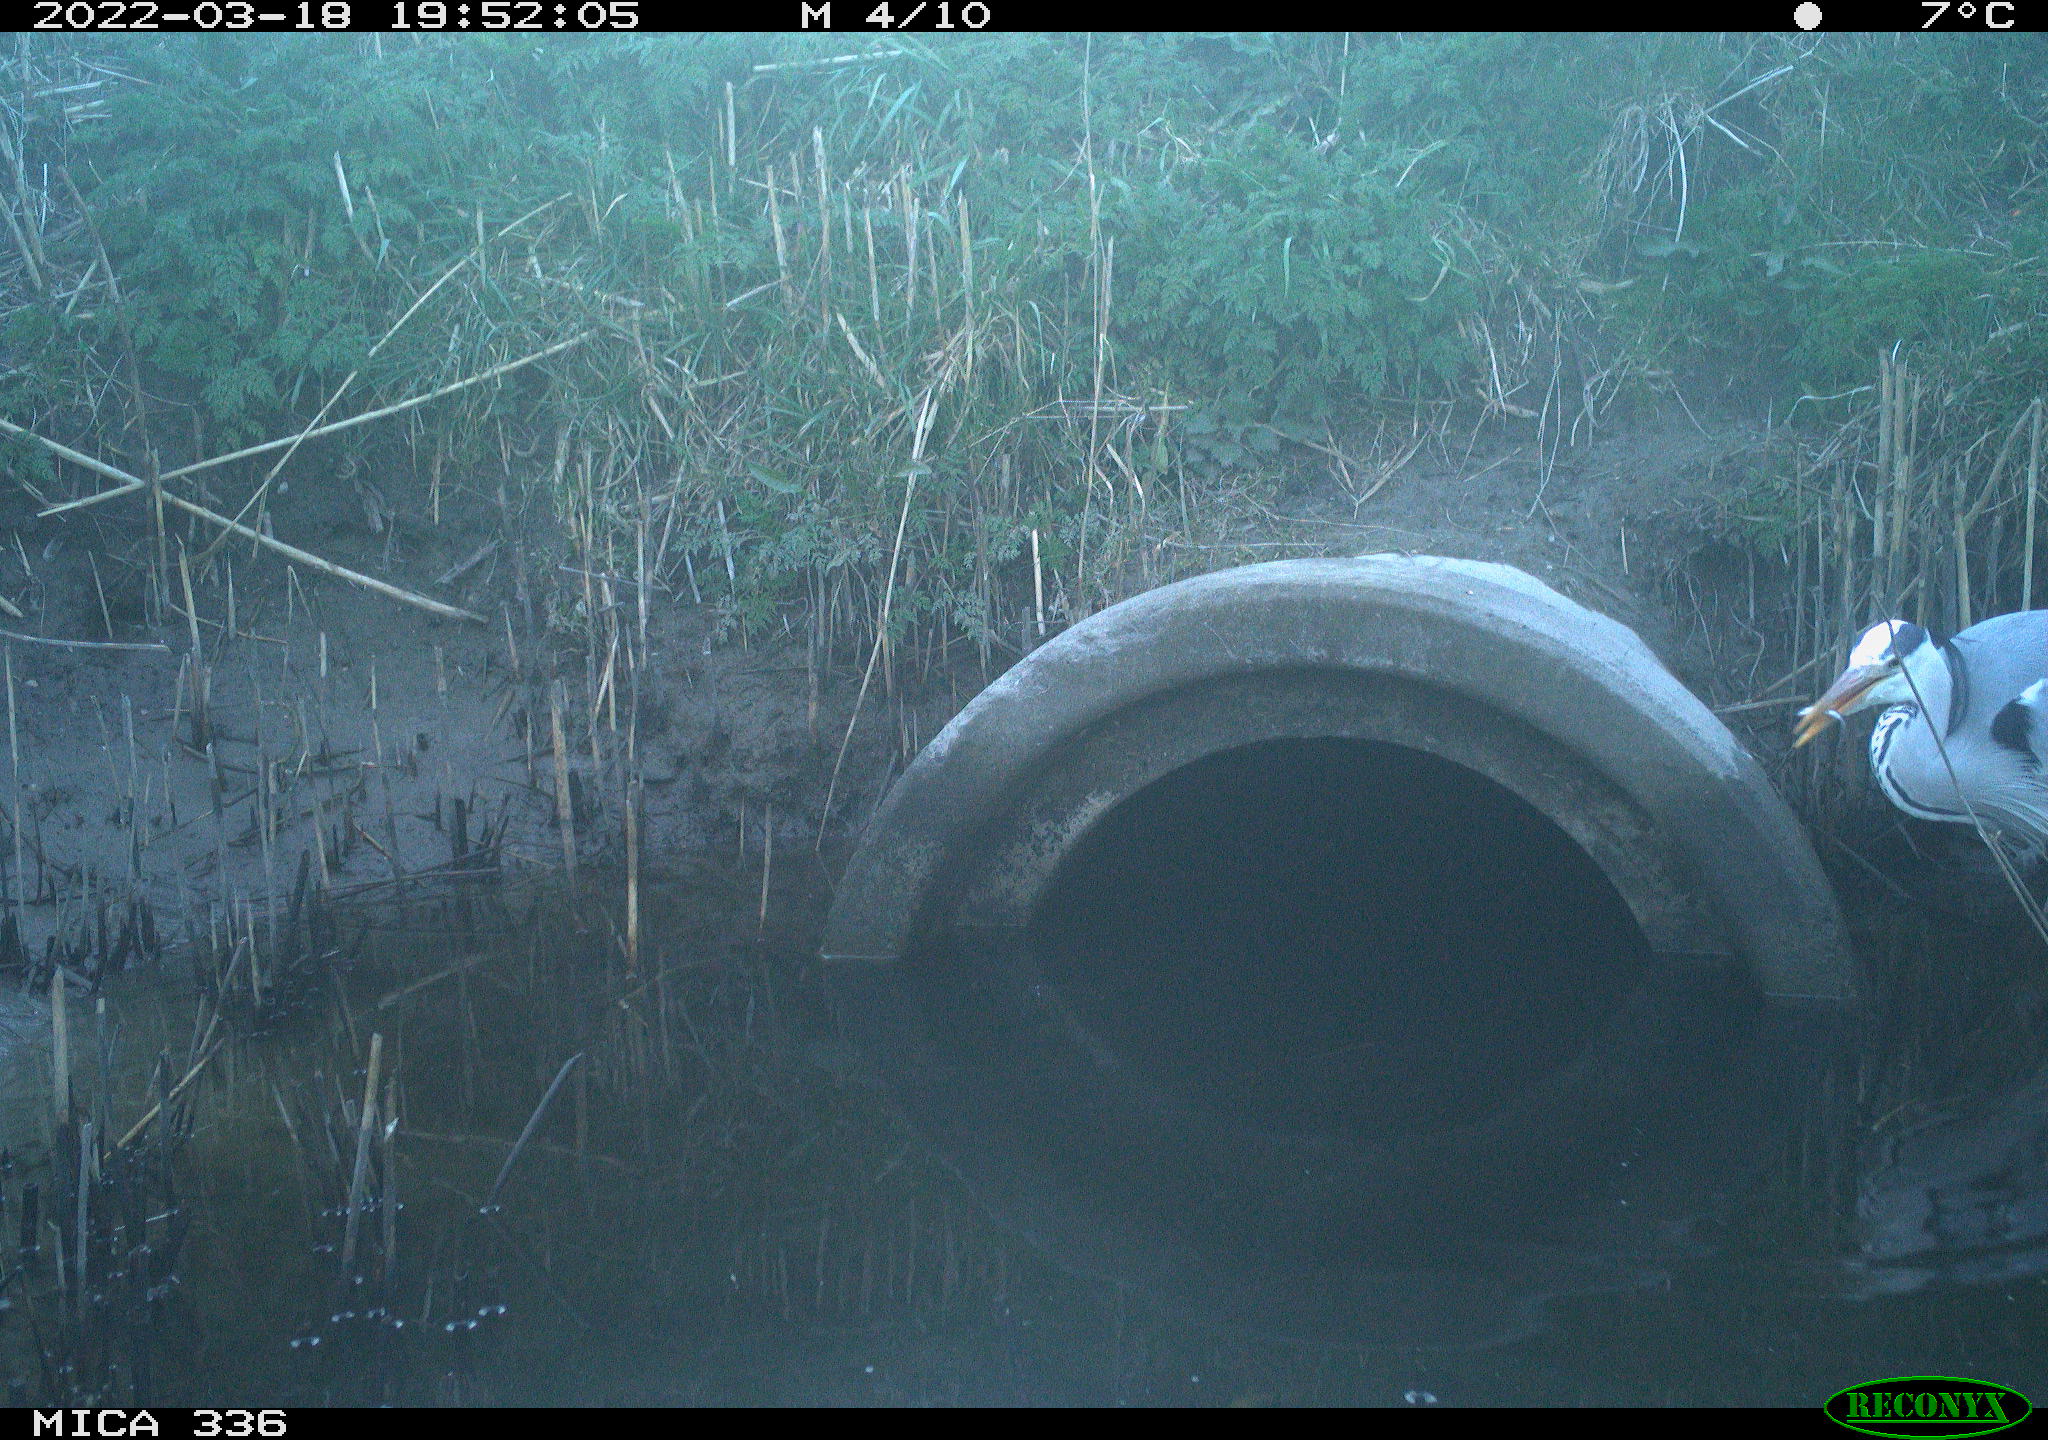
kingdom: Animalia
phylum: Chordata
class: Aves
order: Pelecaniformes
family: Ardeidae
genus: Ardea
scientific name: Ardea cinerea
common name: Grey heron
